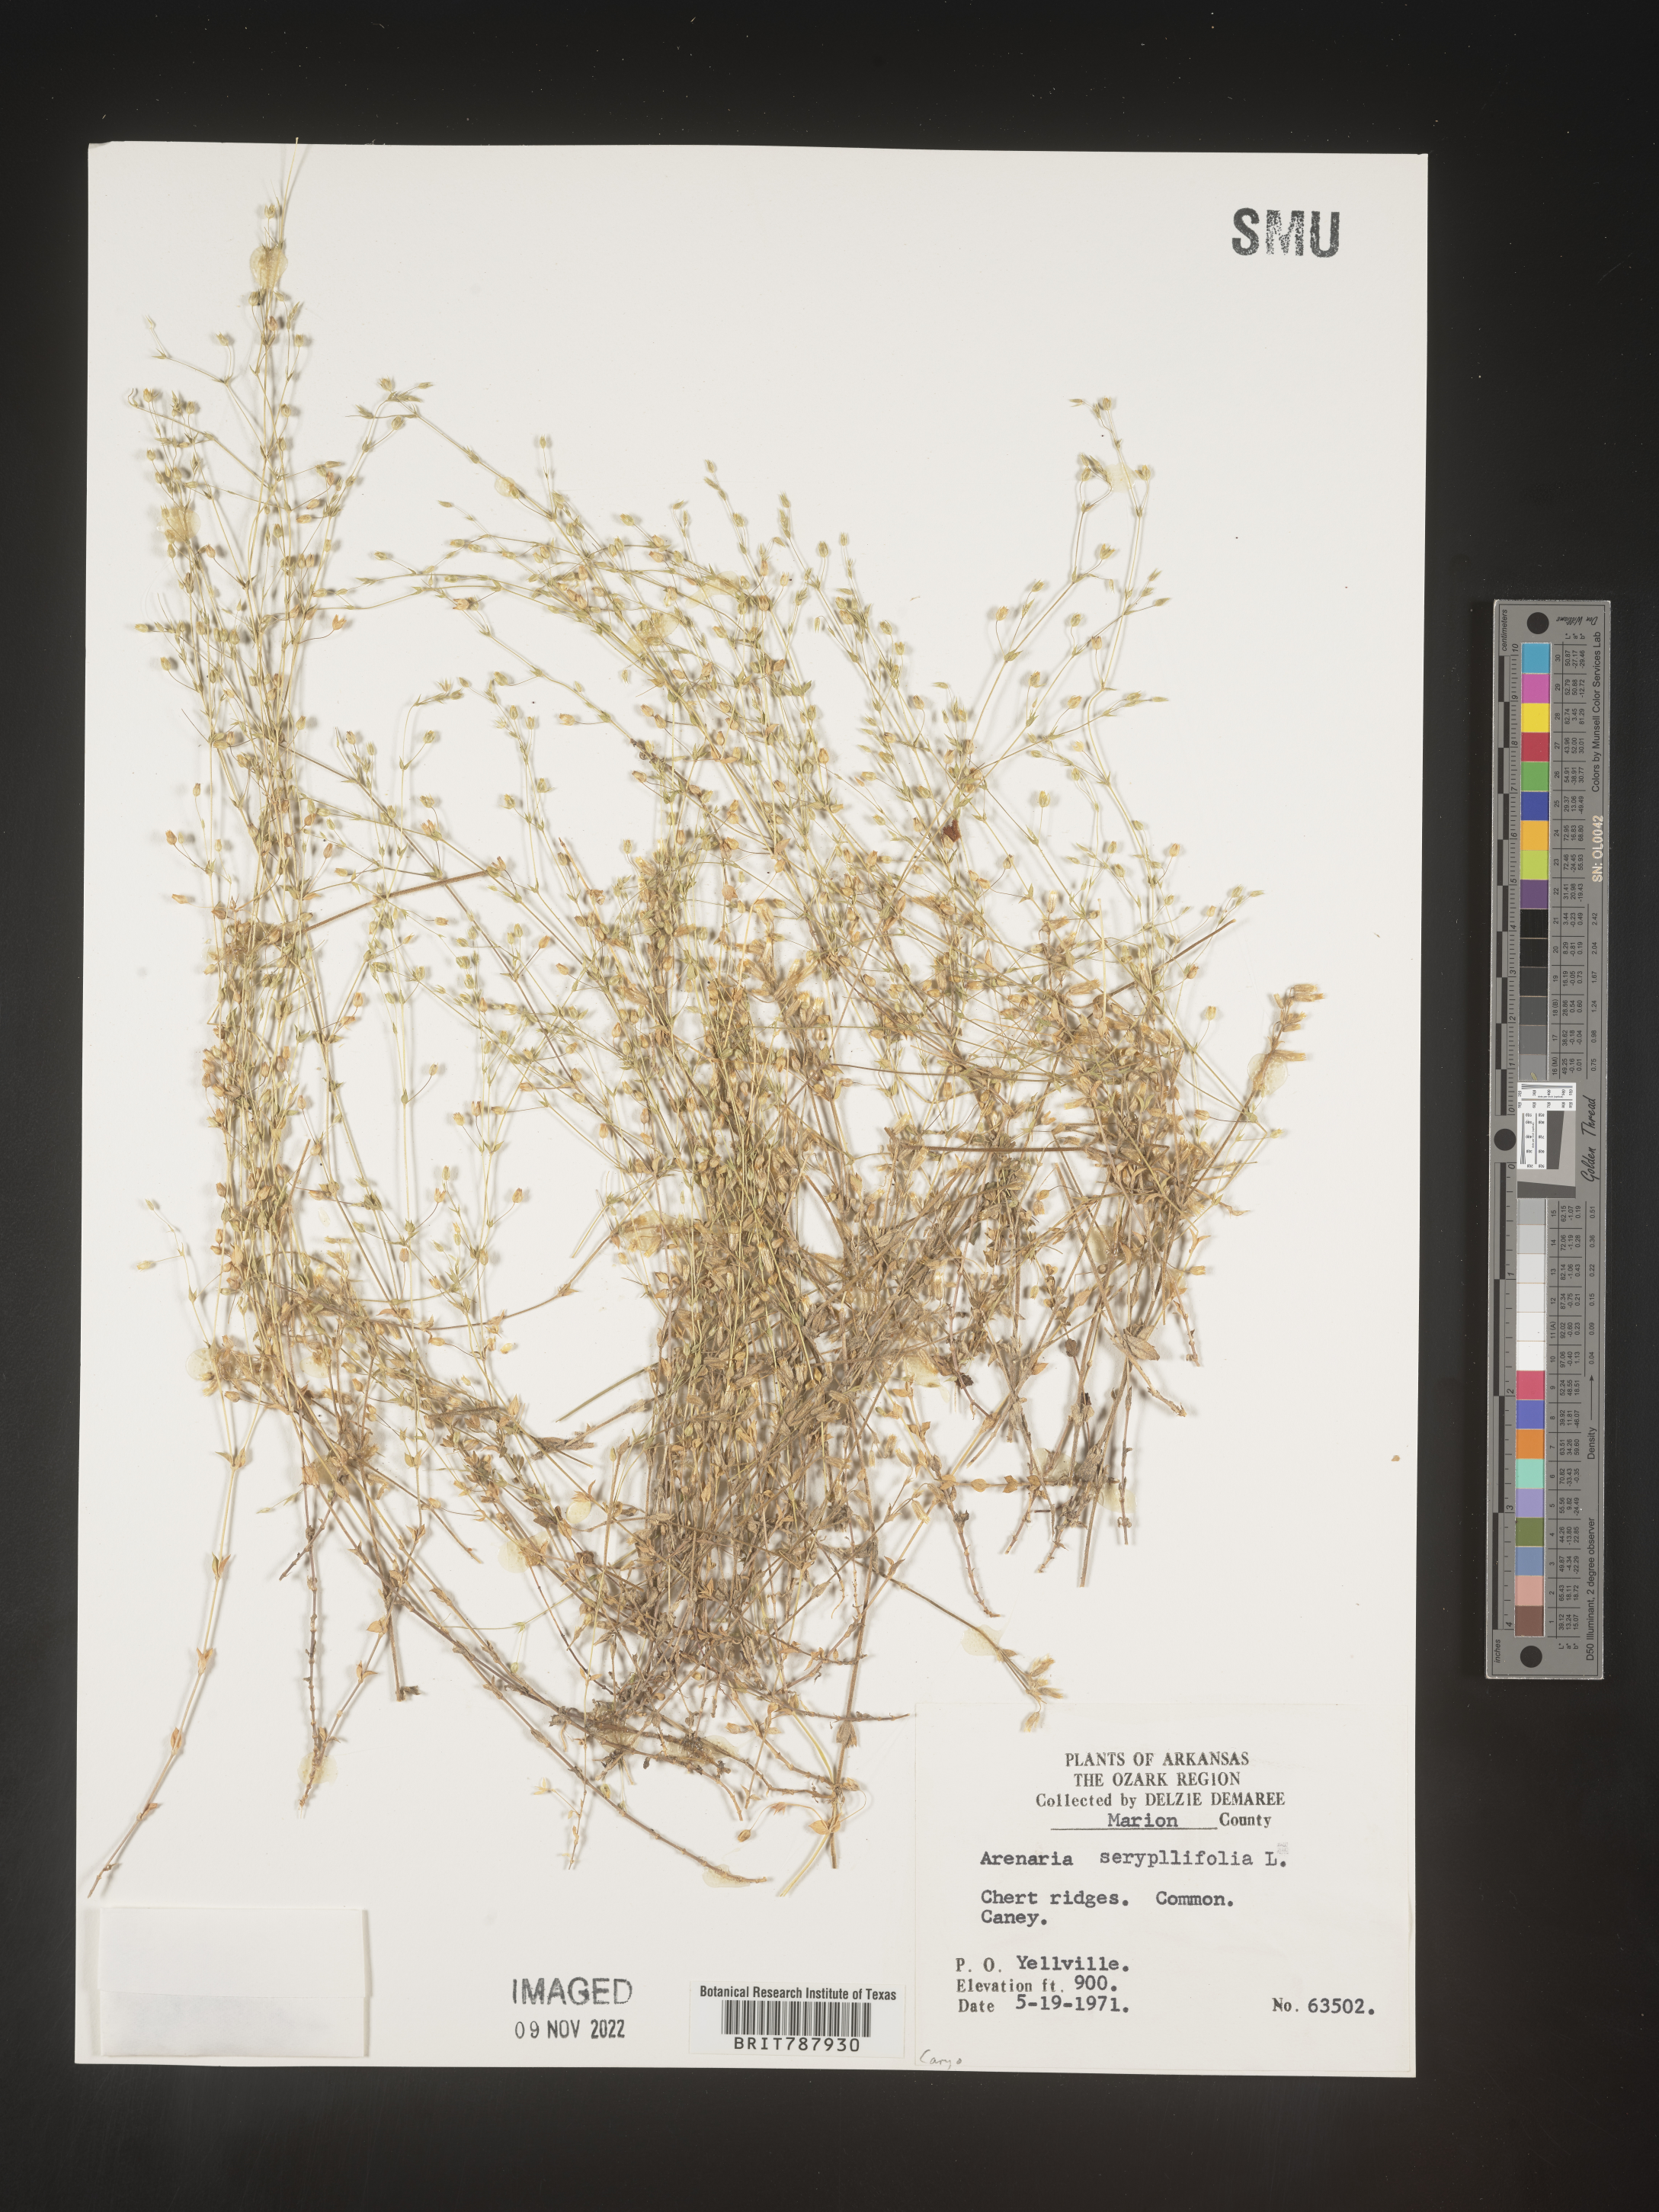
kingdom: Plantae
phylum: Tracheophyta
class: Magnoliopsida
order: Caryophyllales
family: Caryophyllaceae
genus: Arenaria
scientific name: Arenaria serpyllifolia
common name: Thyme-leaved sandwort
